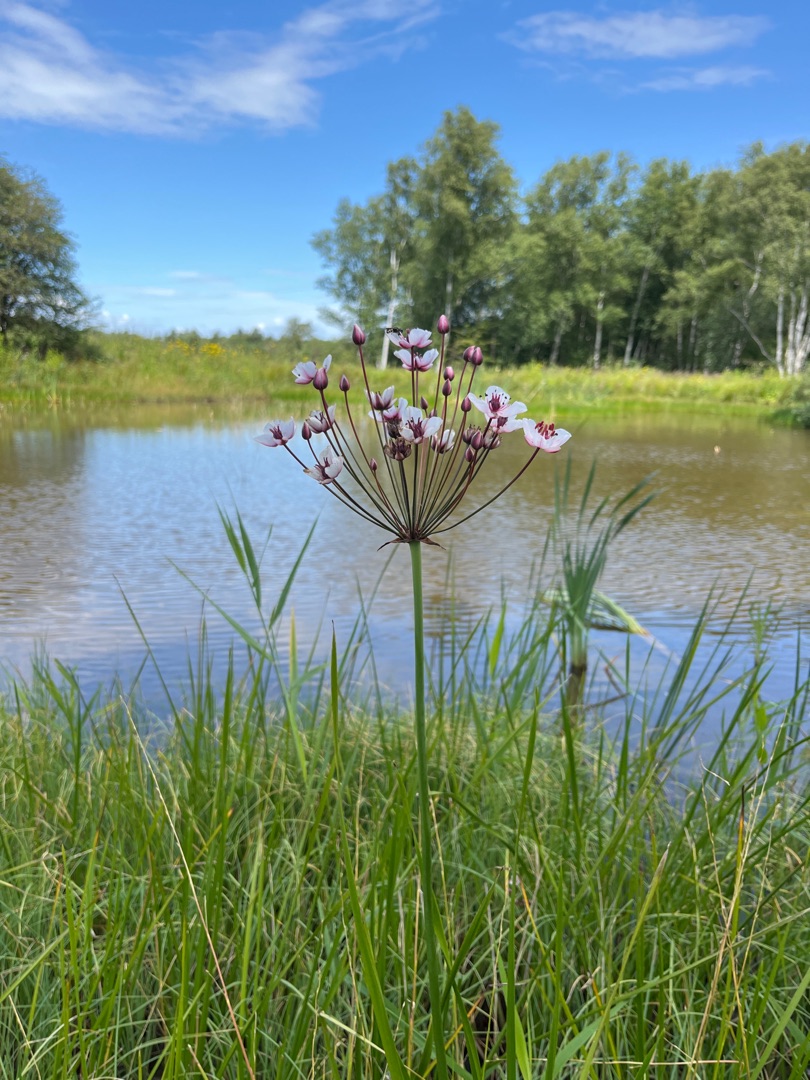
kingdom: Plantae
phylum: Tracheophyta
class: Liliopsida
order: Alismatales
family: Butomaceae
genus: Butomus
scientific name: Butomus umbellatus
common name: Brudelys
